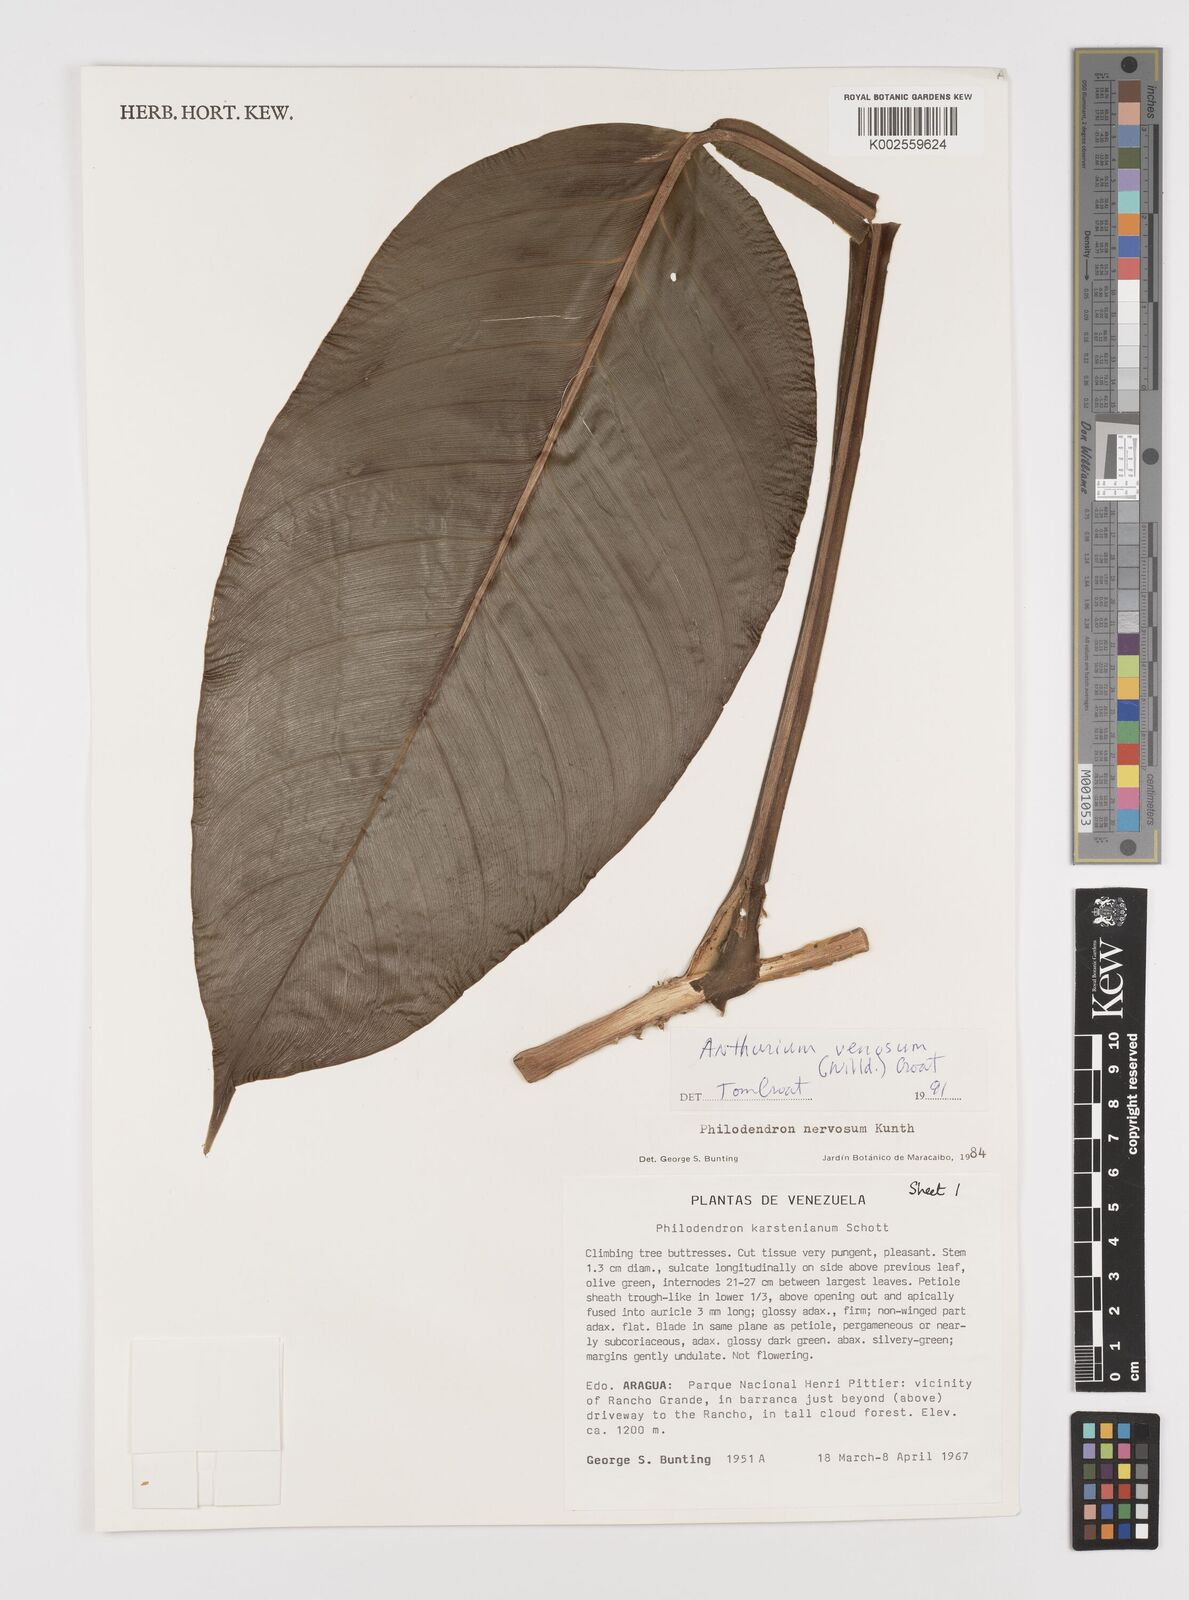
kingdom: Plantae
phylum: Tracheophyta
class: Liliopsida
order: Alismatales
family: Araceae
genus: Philodendron
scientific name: Philodendron venosum
